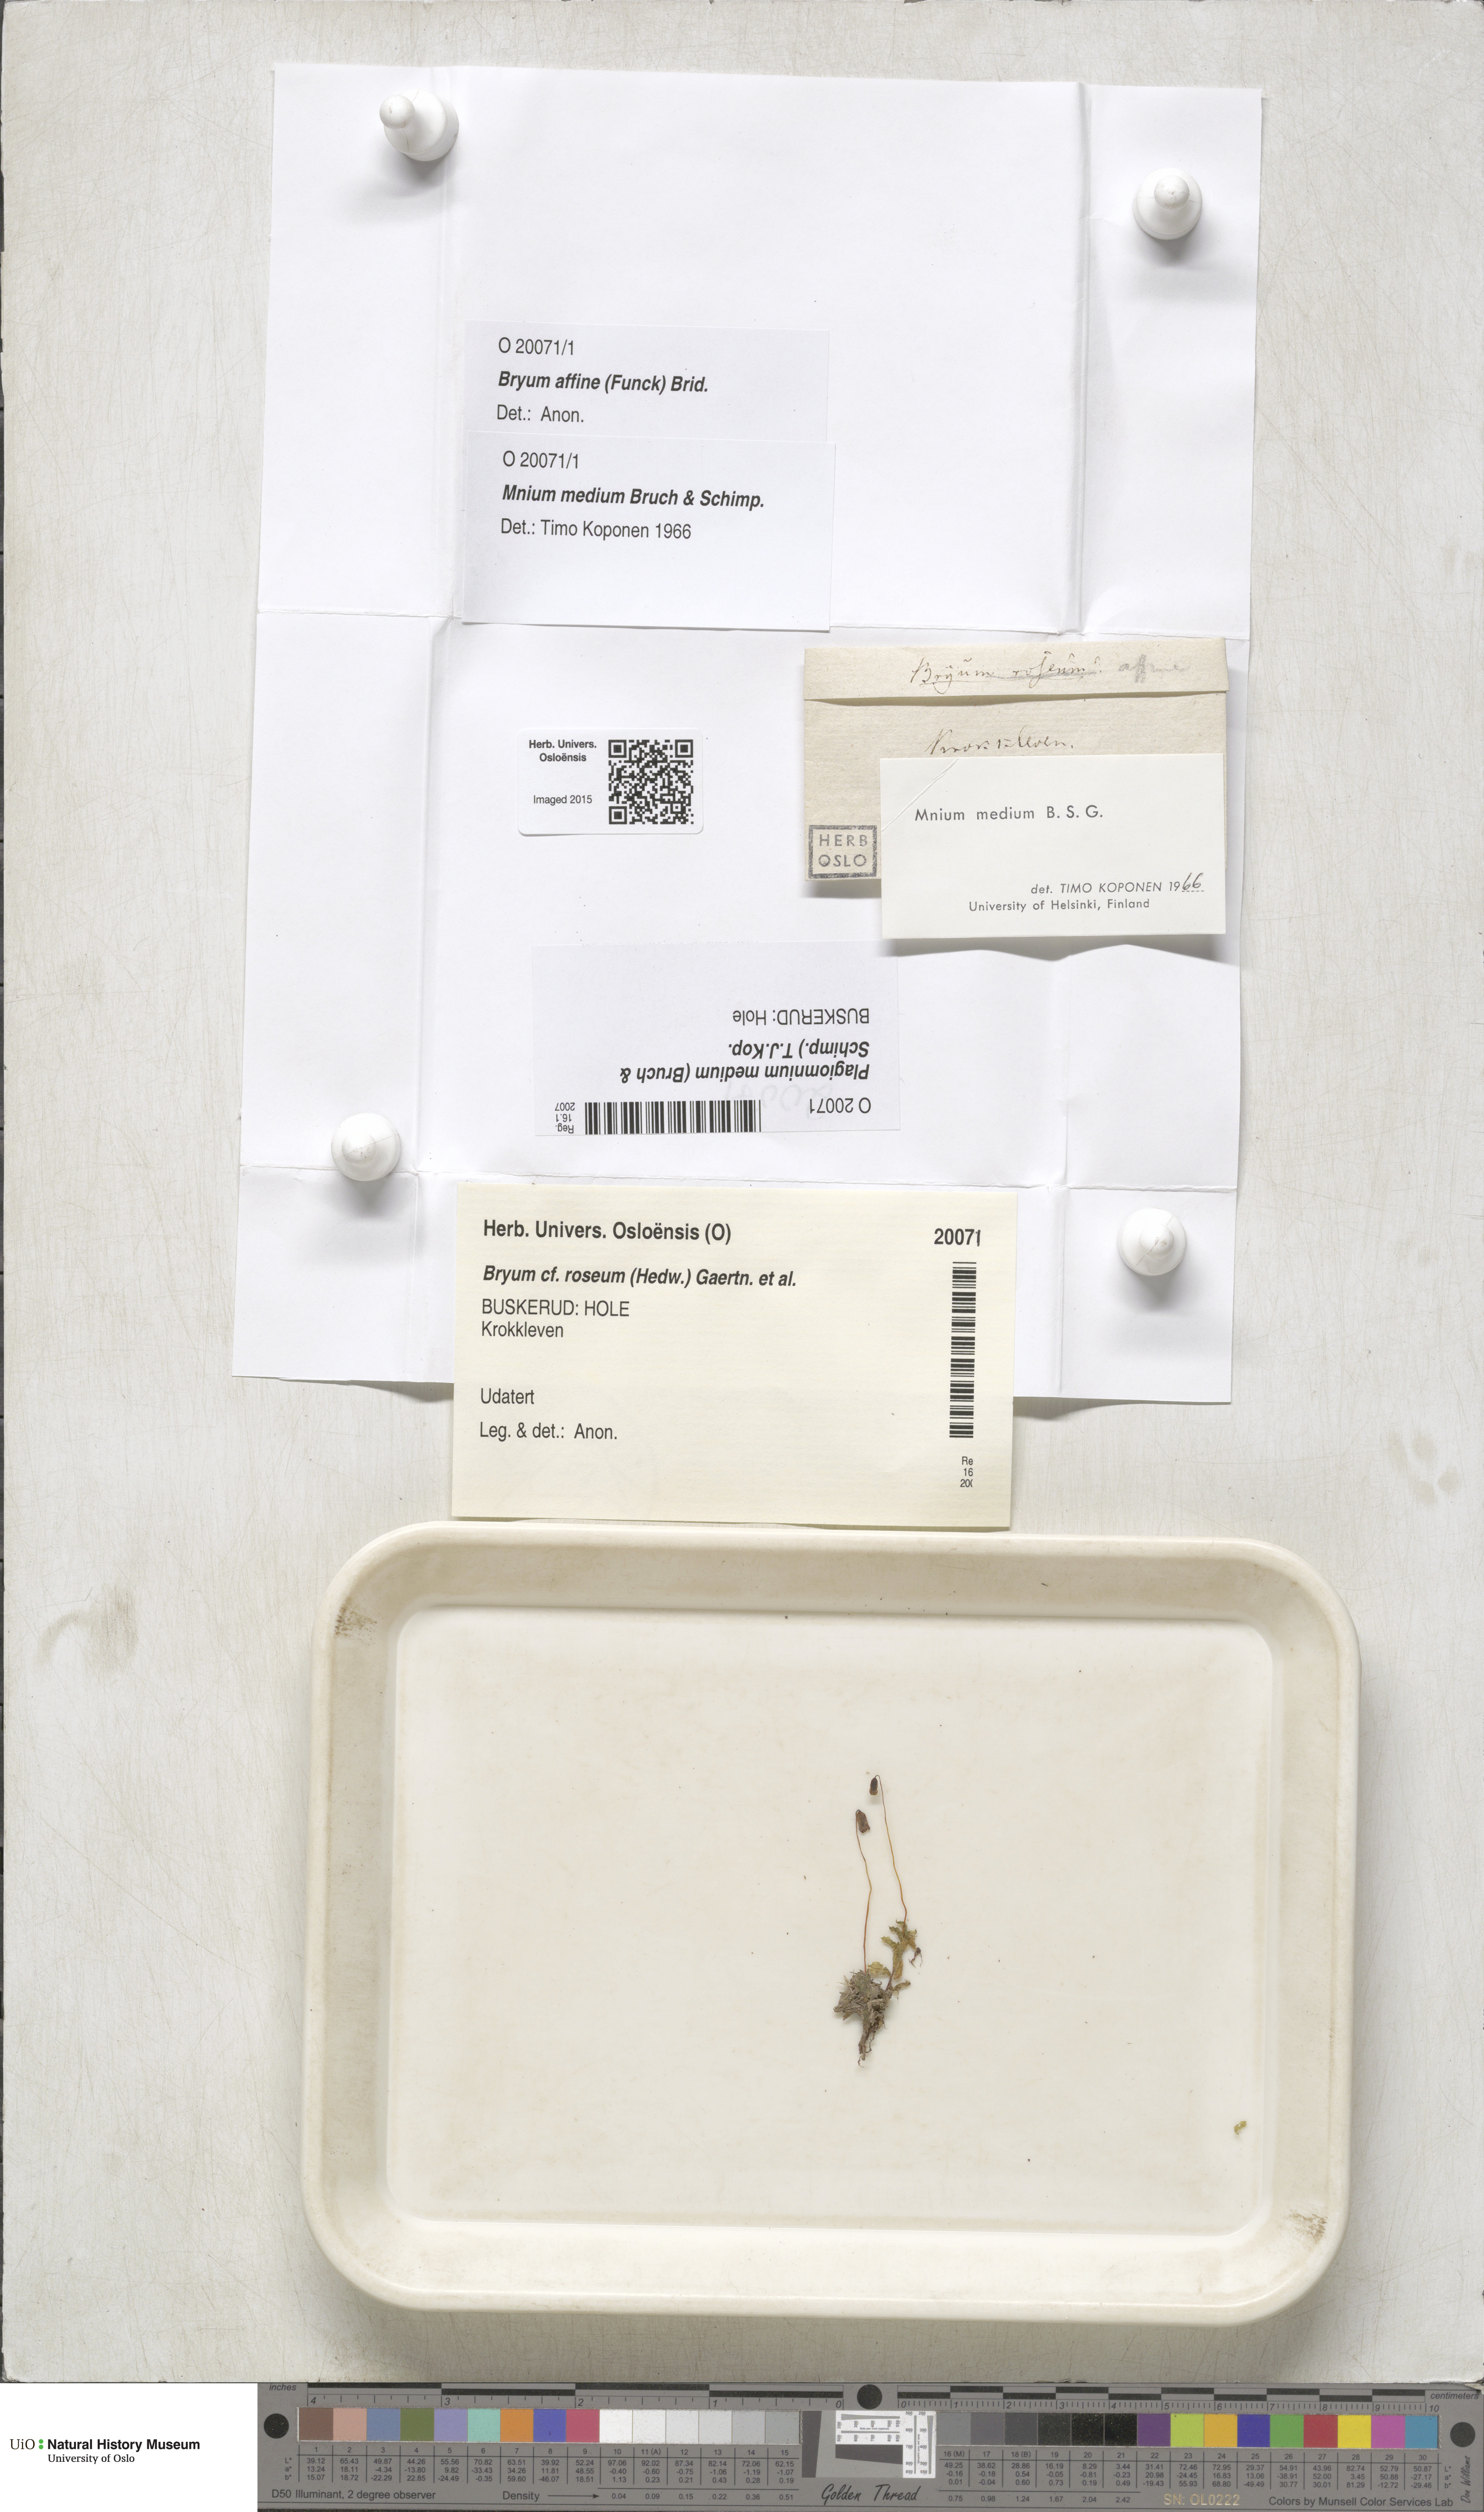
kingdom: Plantae
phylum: Bryophyta
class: Bryopsida
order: Bryales
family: Mniaceae
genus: Plagiomnium
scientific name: Plagiomnium medium
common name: Alpine leafy moss
